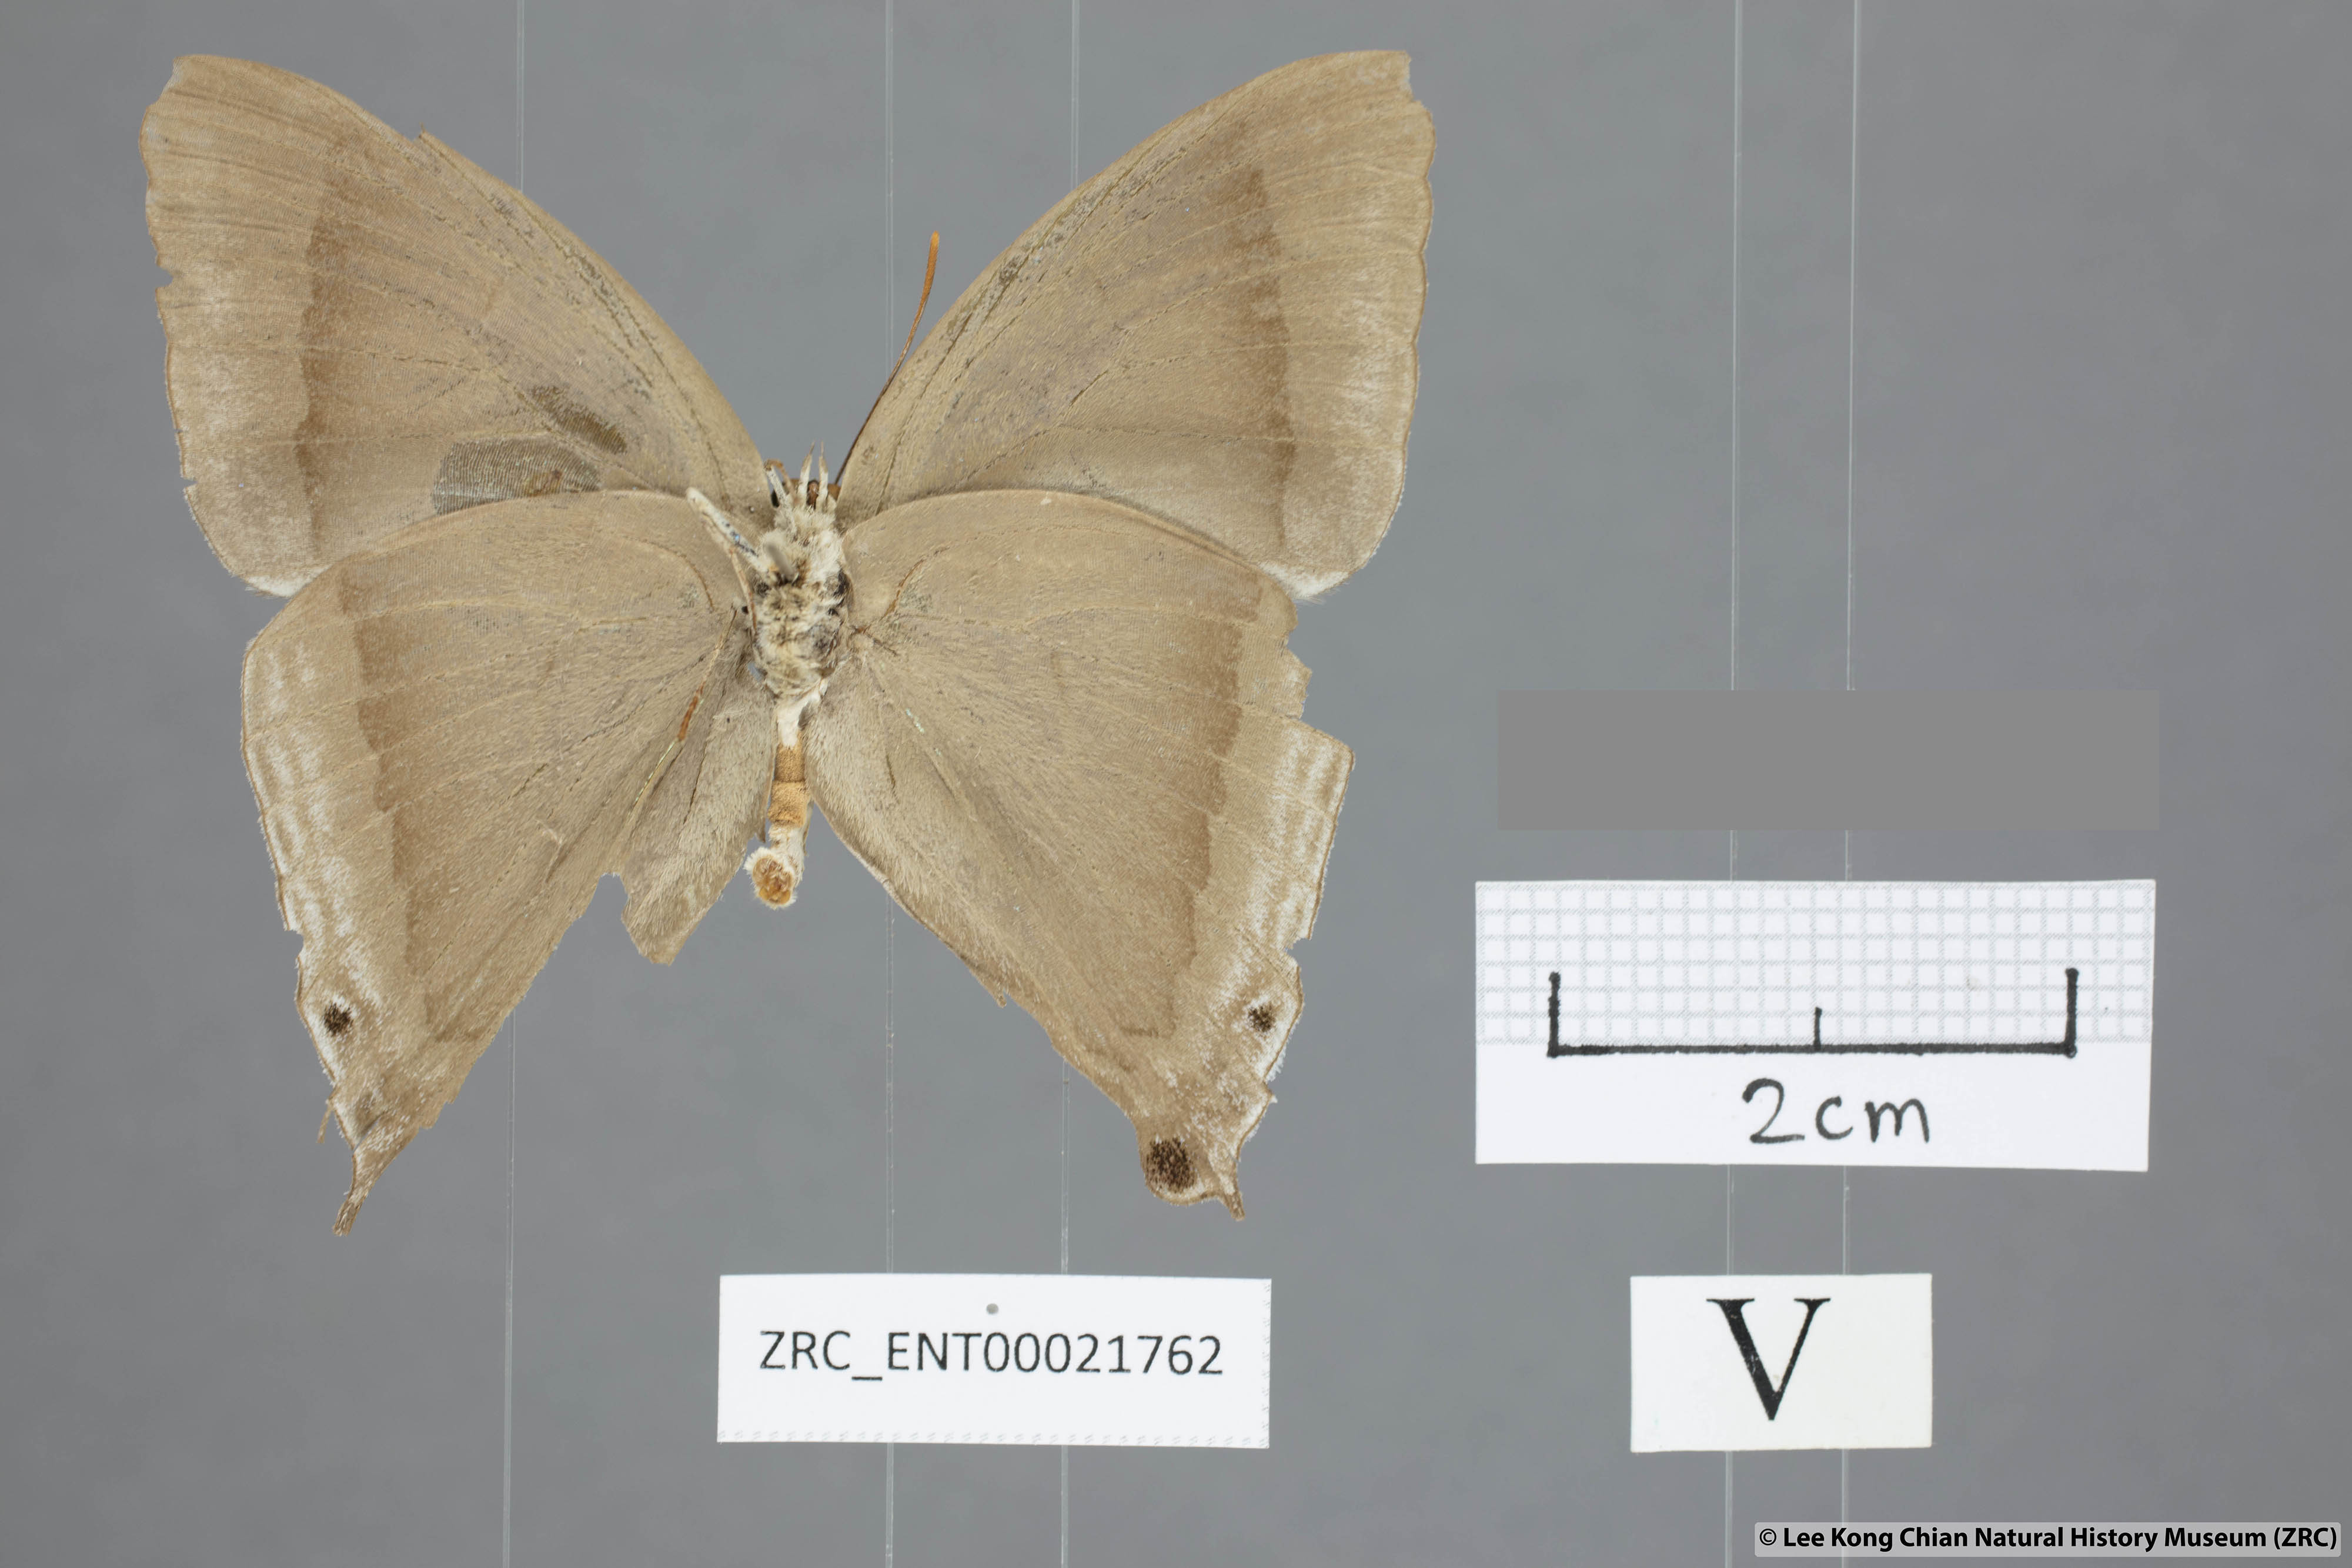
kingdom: Animalia
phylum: Arthropoda
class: Insecta
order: Lepidoptera
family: Lycaenidae
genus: Purlisa
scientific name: Purlisa giganteus
